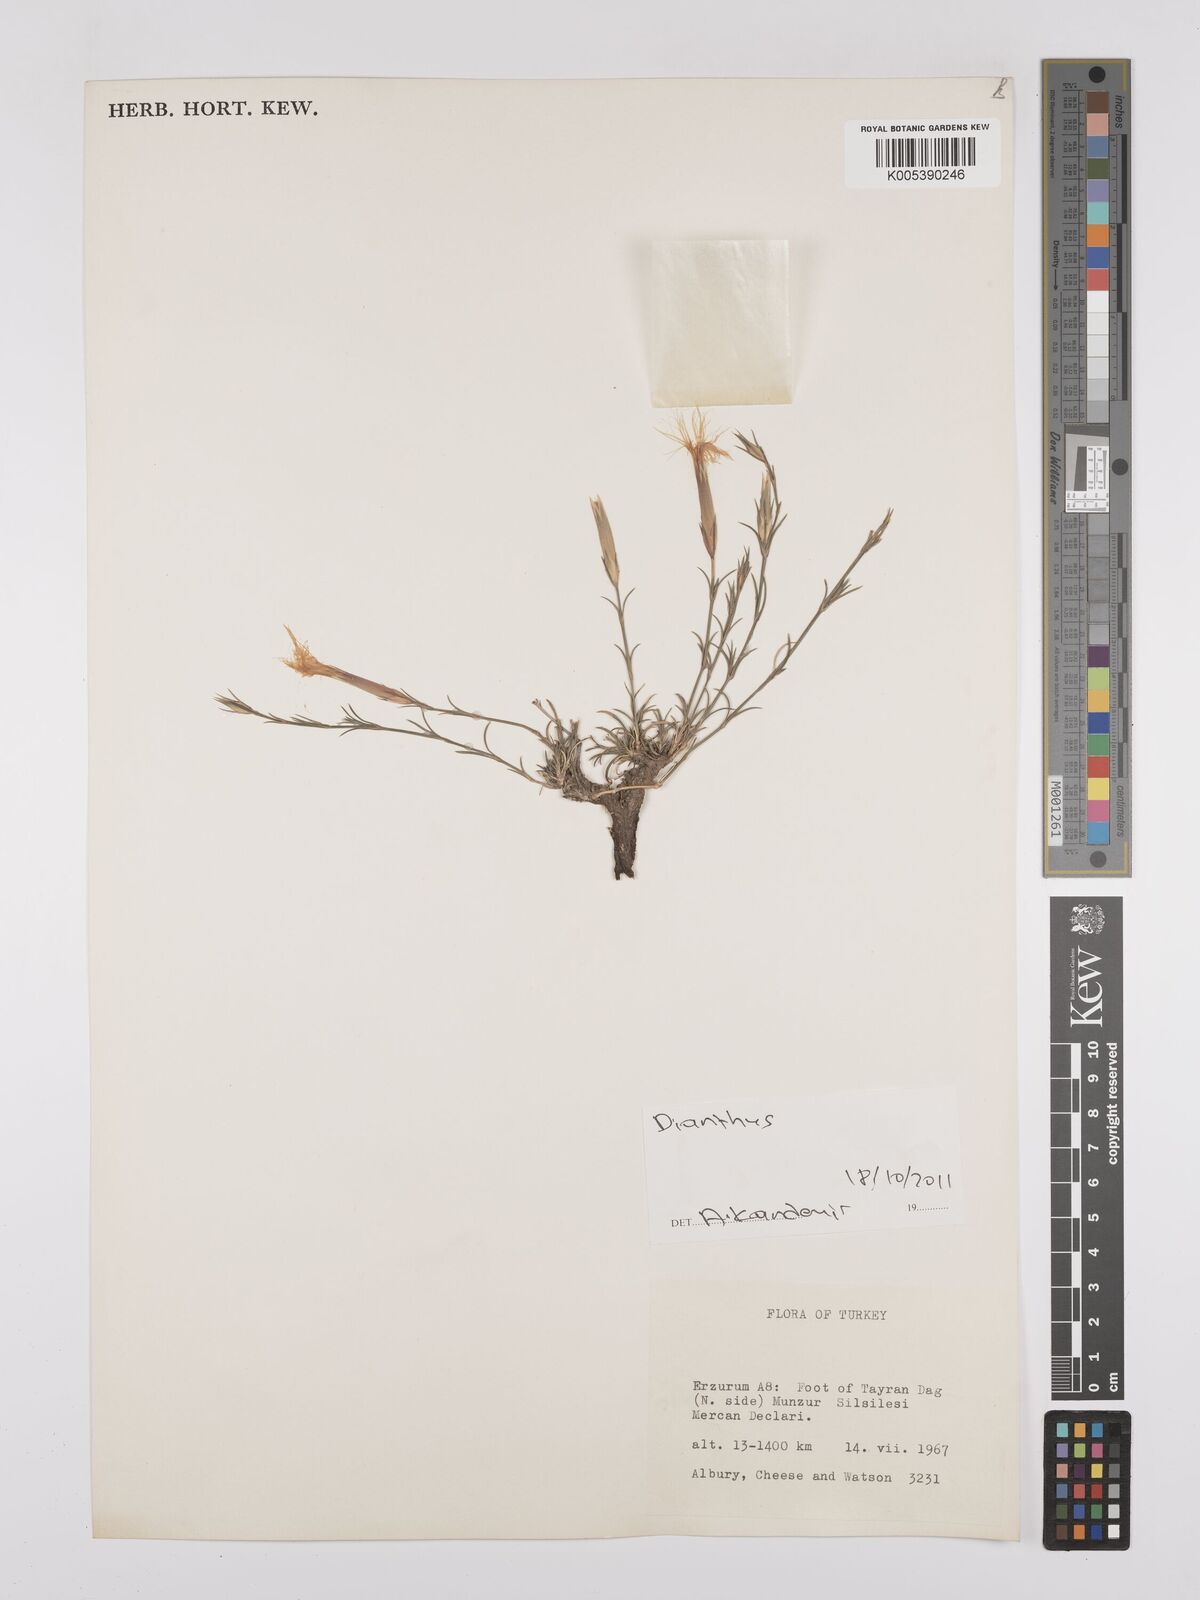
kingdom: Plantae
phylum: Tracheophyta
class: Magnoliopsida
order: Caryophyllales
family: Caryophyllaceae
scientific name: Caryophyllaceae
